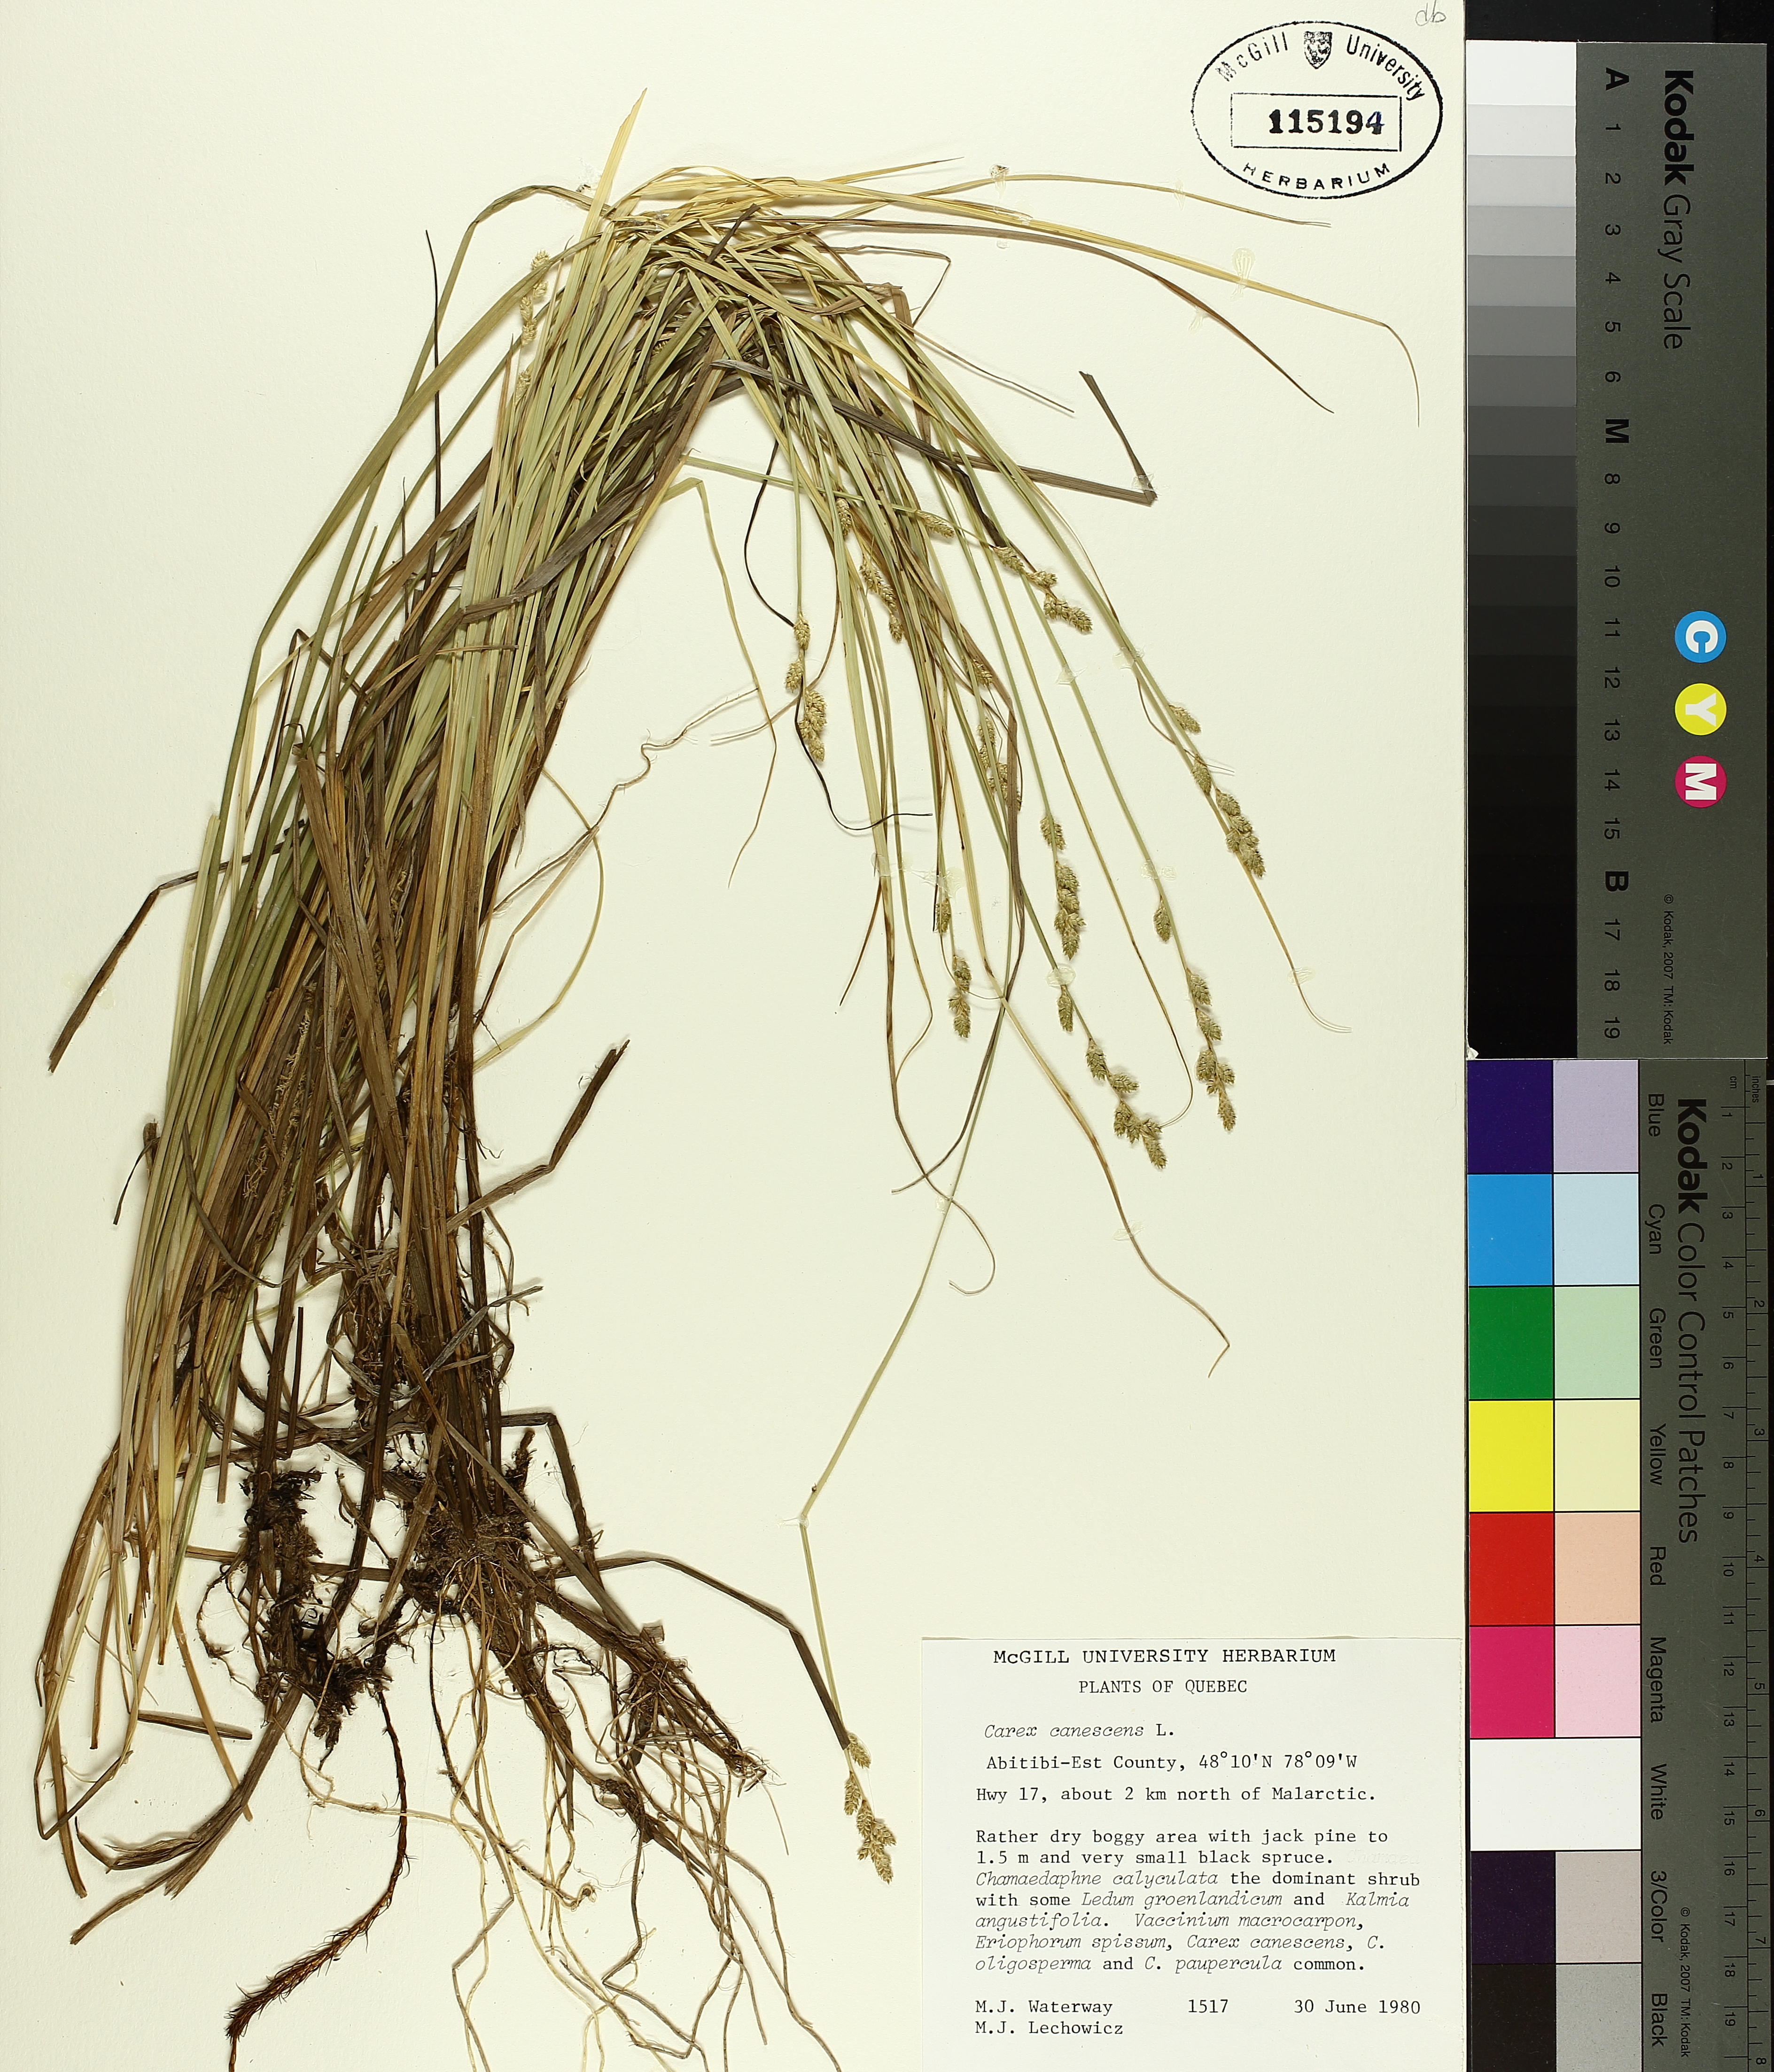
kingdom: Plantae
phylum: Tracheophyta
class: Liliopsida
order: Poales
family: Cyperaceae
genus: Carex
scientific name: Carex canescens
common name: White sedge
